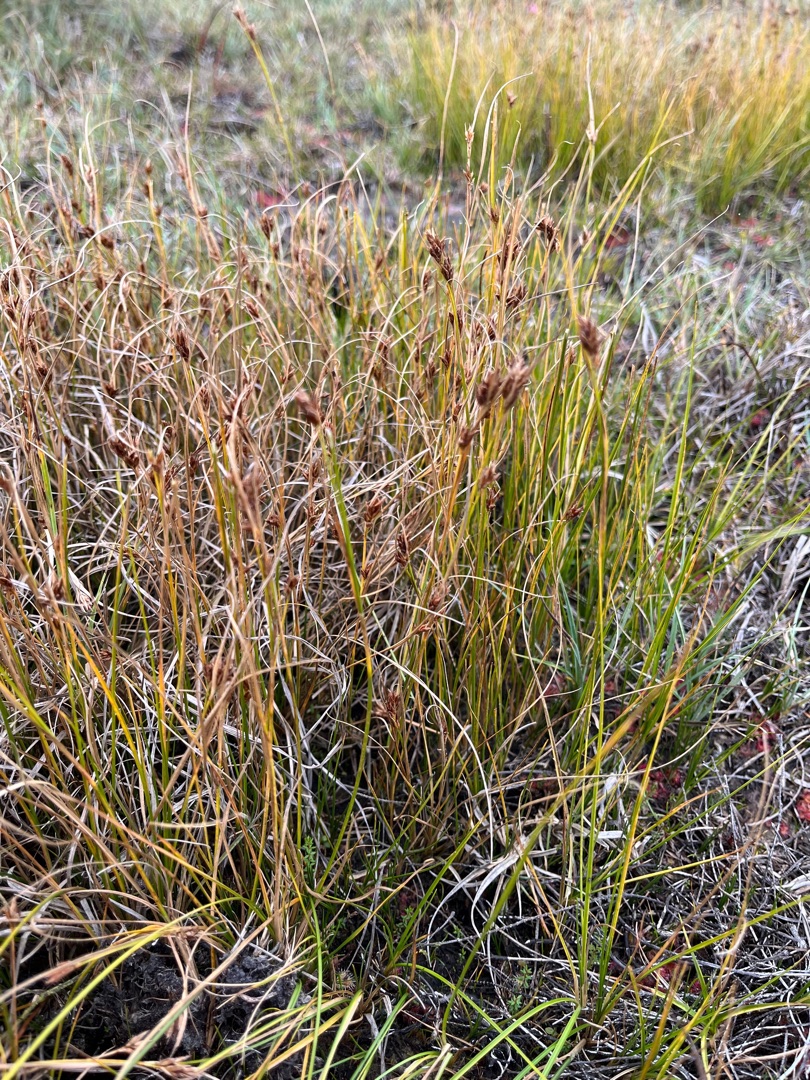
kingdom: Plantae
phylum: Tracheophyta
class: Liliopsida
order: Poales
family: Cyperaceae
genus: Rhynchospora
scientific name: Rhynchospora fusca
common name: Brun næbfrø
